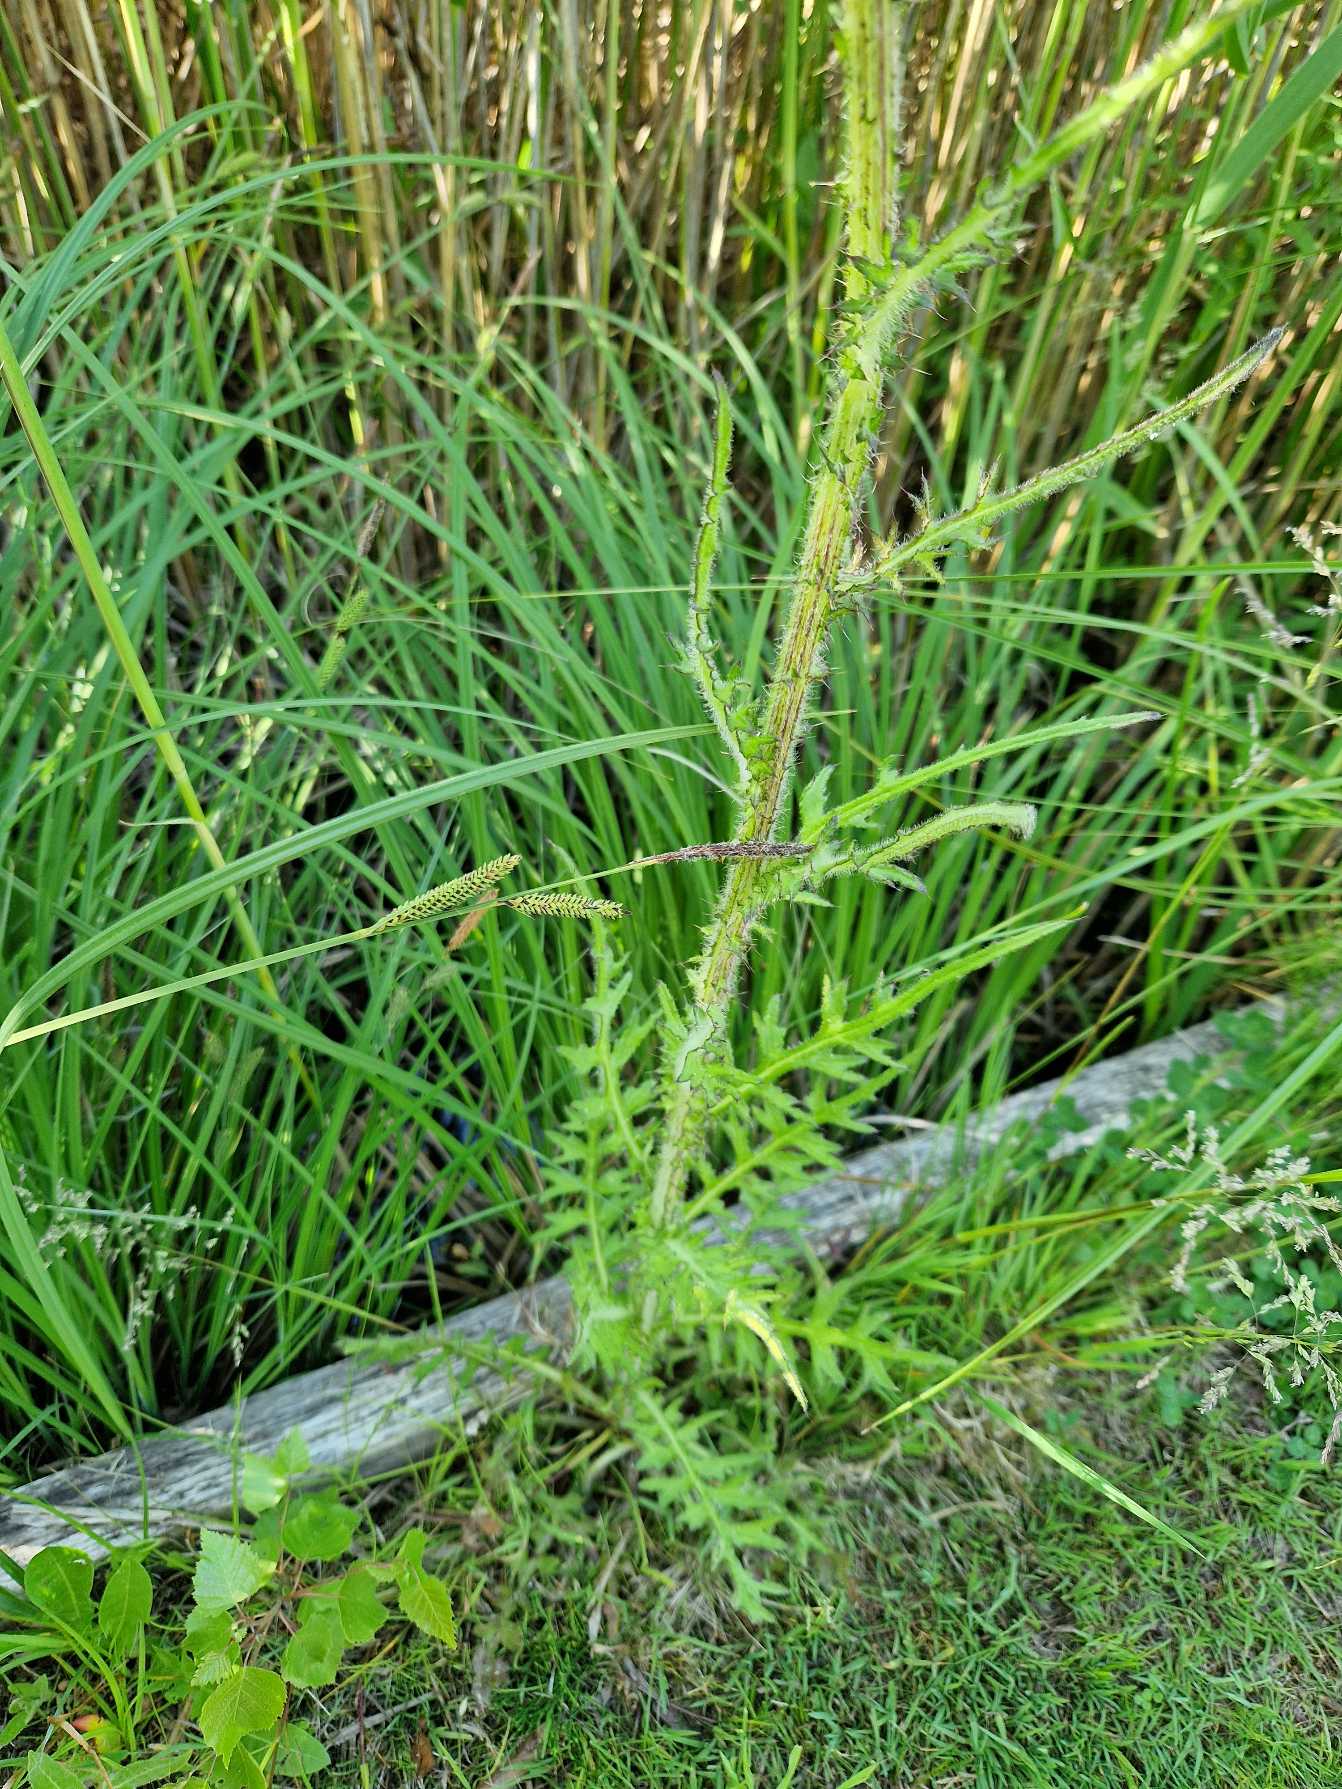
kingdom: Plantae
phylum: Tracheophyta
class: Magnoliopsida
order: Asterales
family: Asteraceae
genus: Cirsium
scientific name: Cirsium palustre
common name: Kær-tidsel
